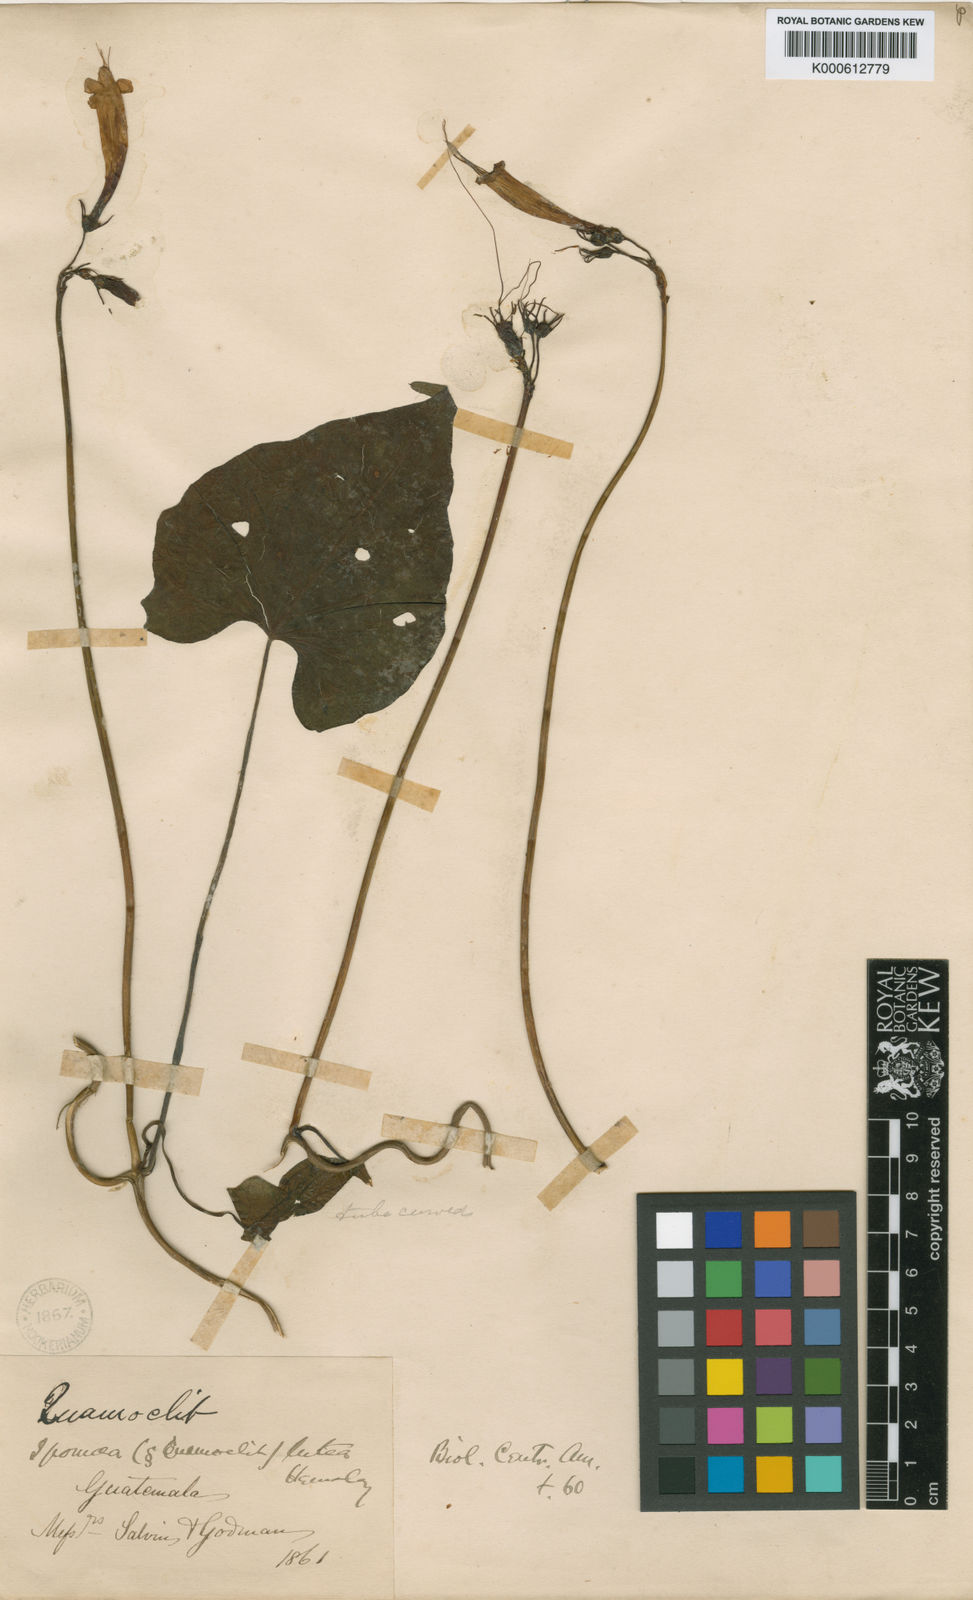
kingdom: Plantae
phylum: Tracheophyta
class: Magnoliopsida
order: Solanales
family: Convolvulaceae
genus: Ipomoea
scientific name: Ipomoea coccinea
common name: Red morning-glory
